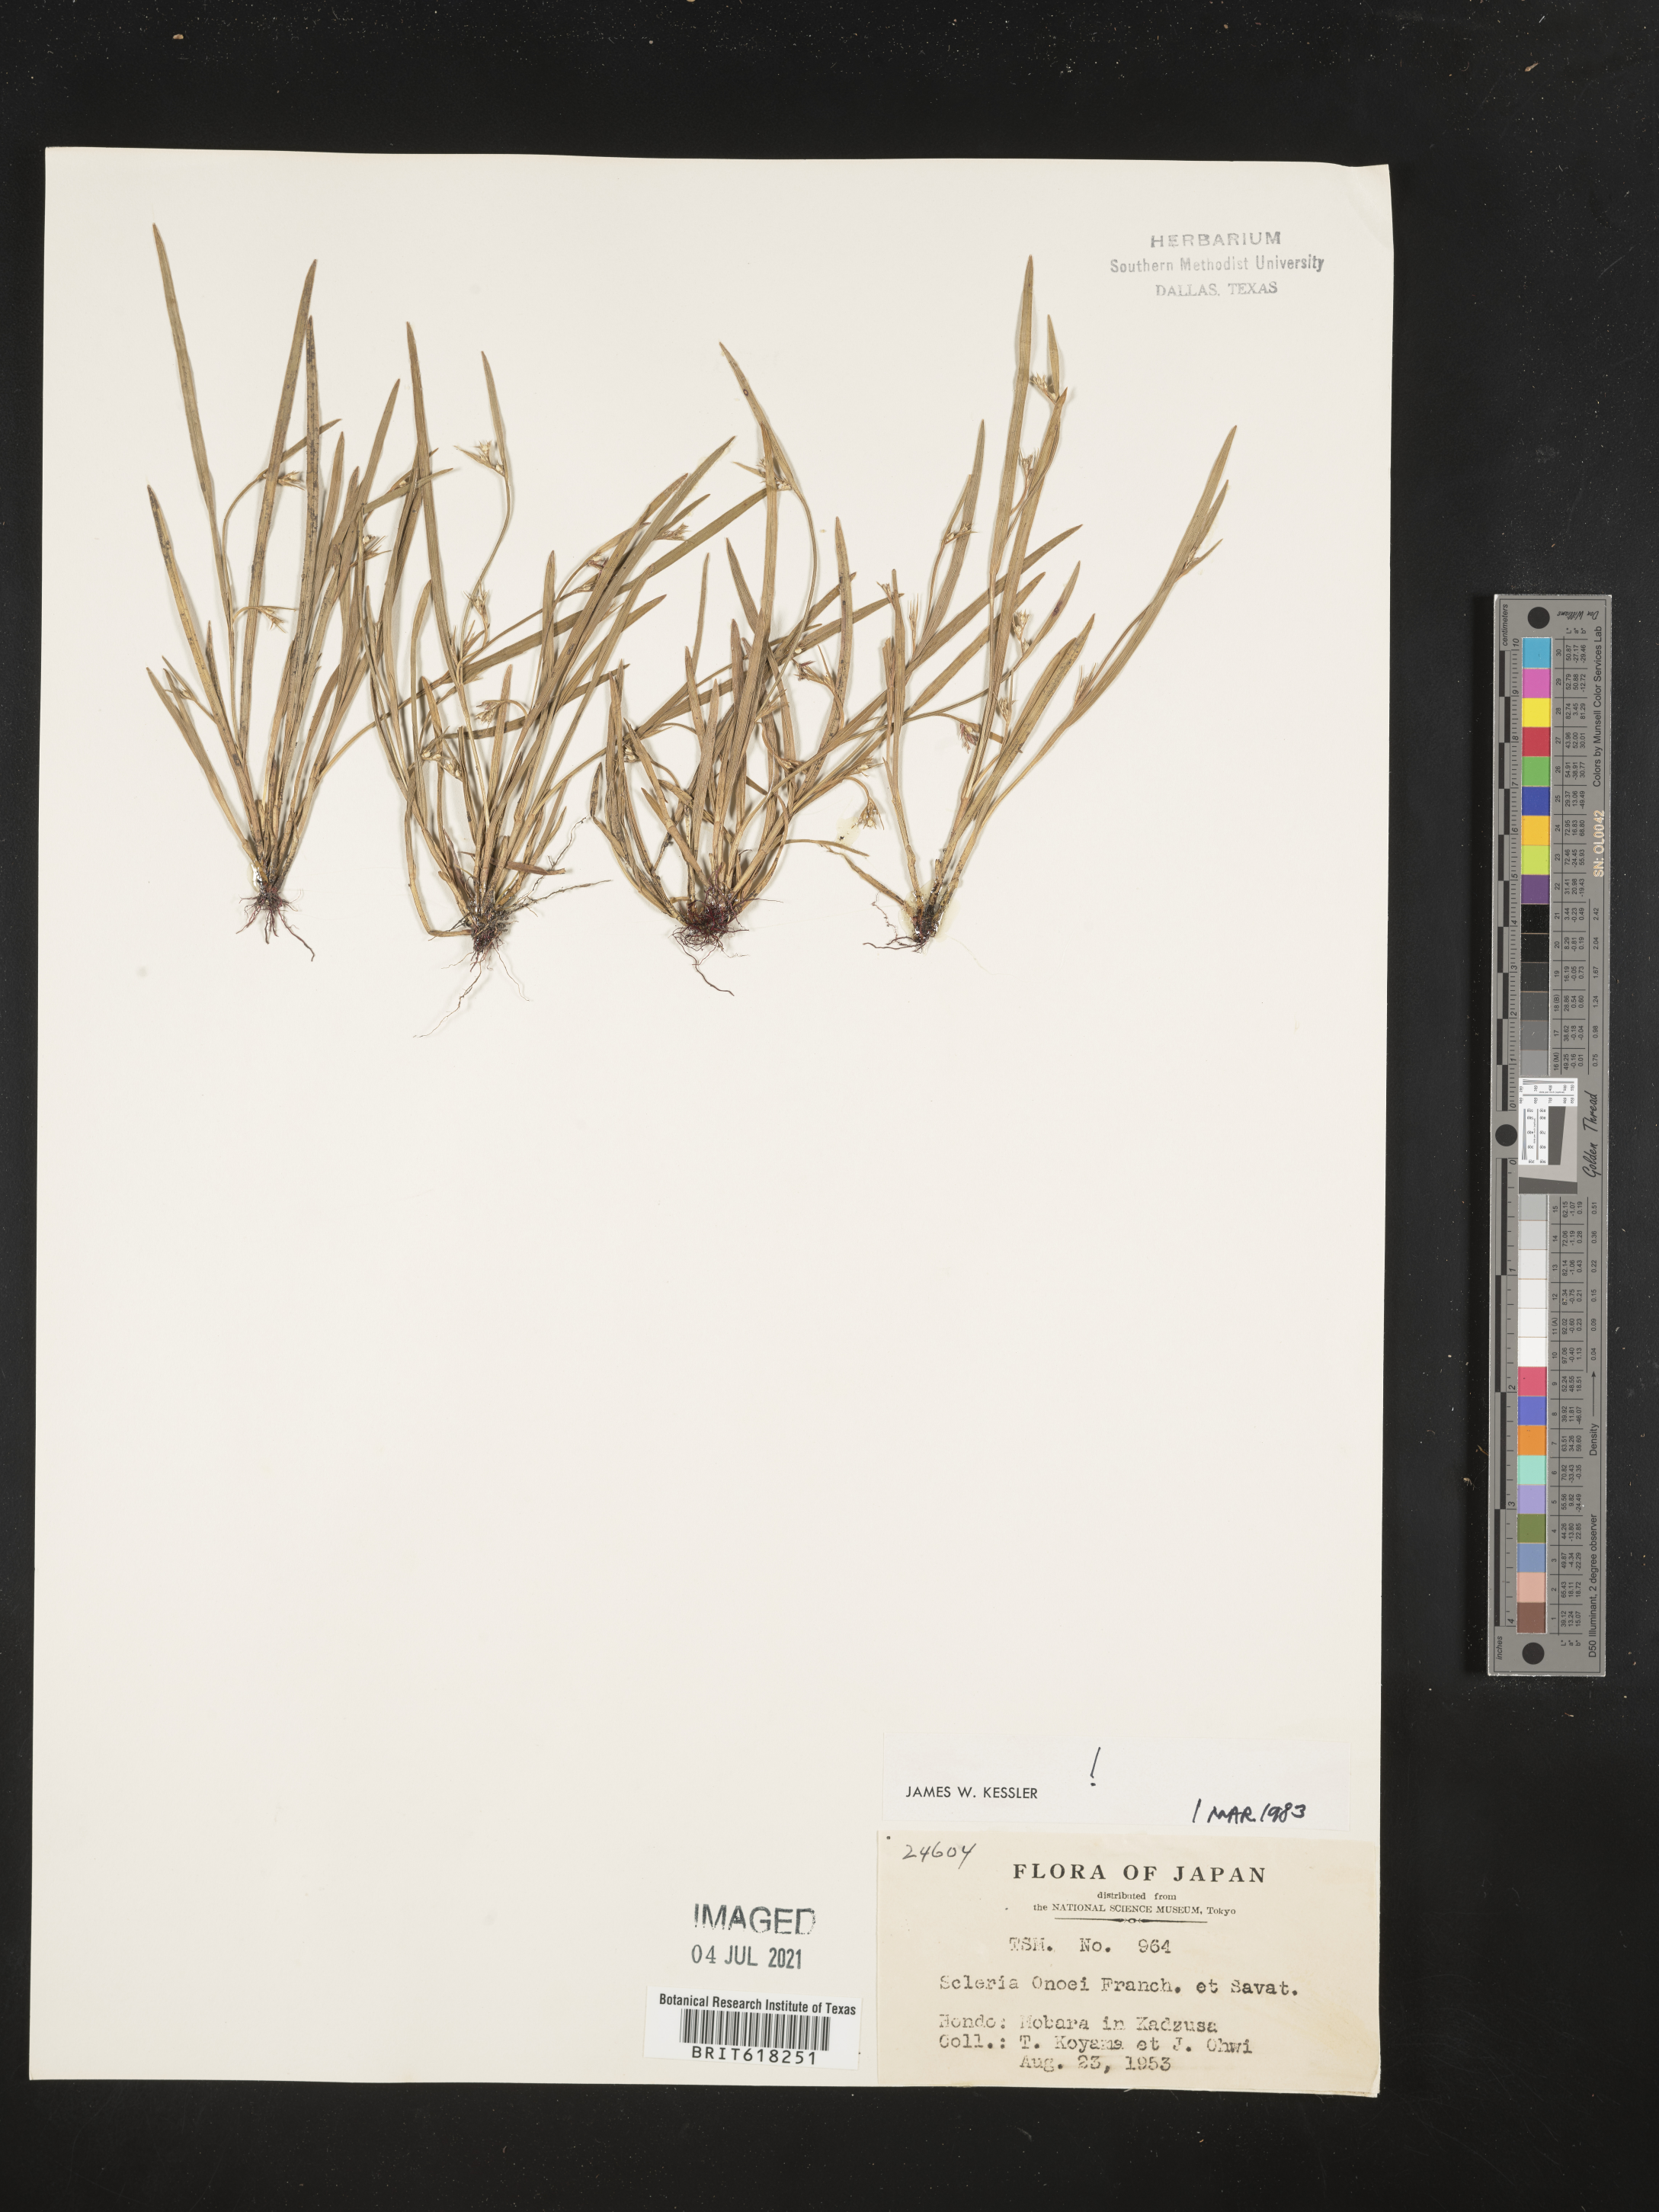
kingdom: Plantae
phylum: Tracheophyta
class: Liliopsida
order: Poales
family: Cyperaceae
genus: Scleria
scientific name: Scleria rugosa
